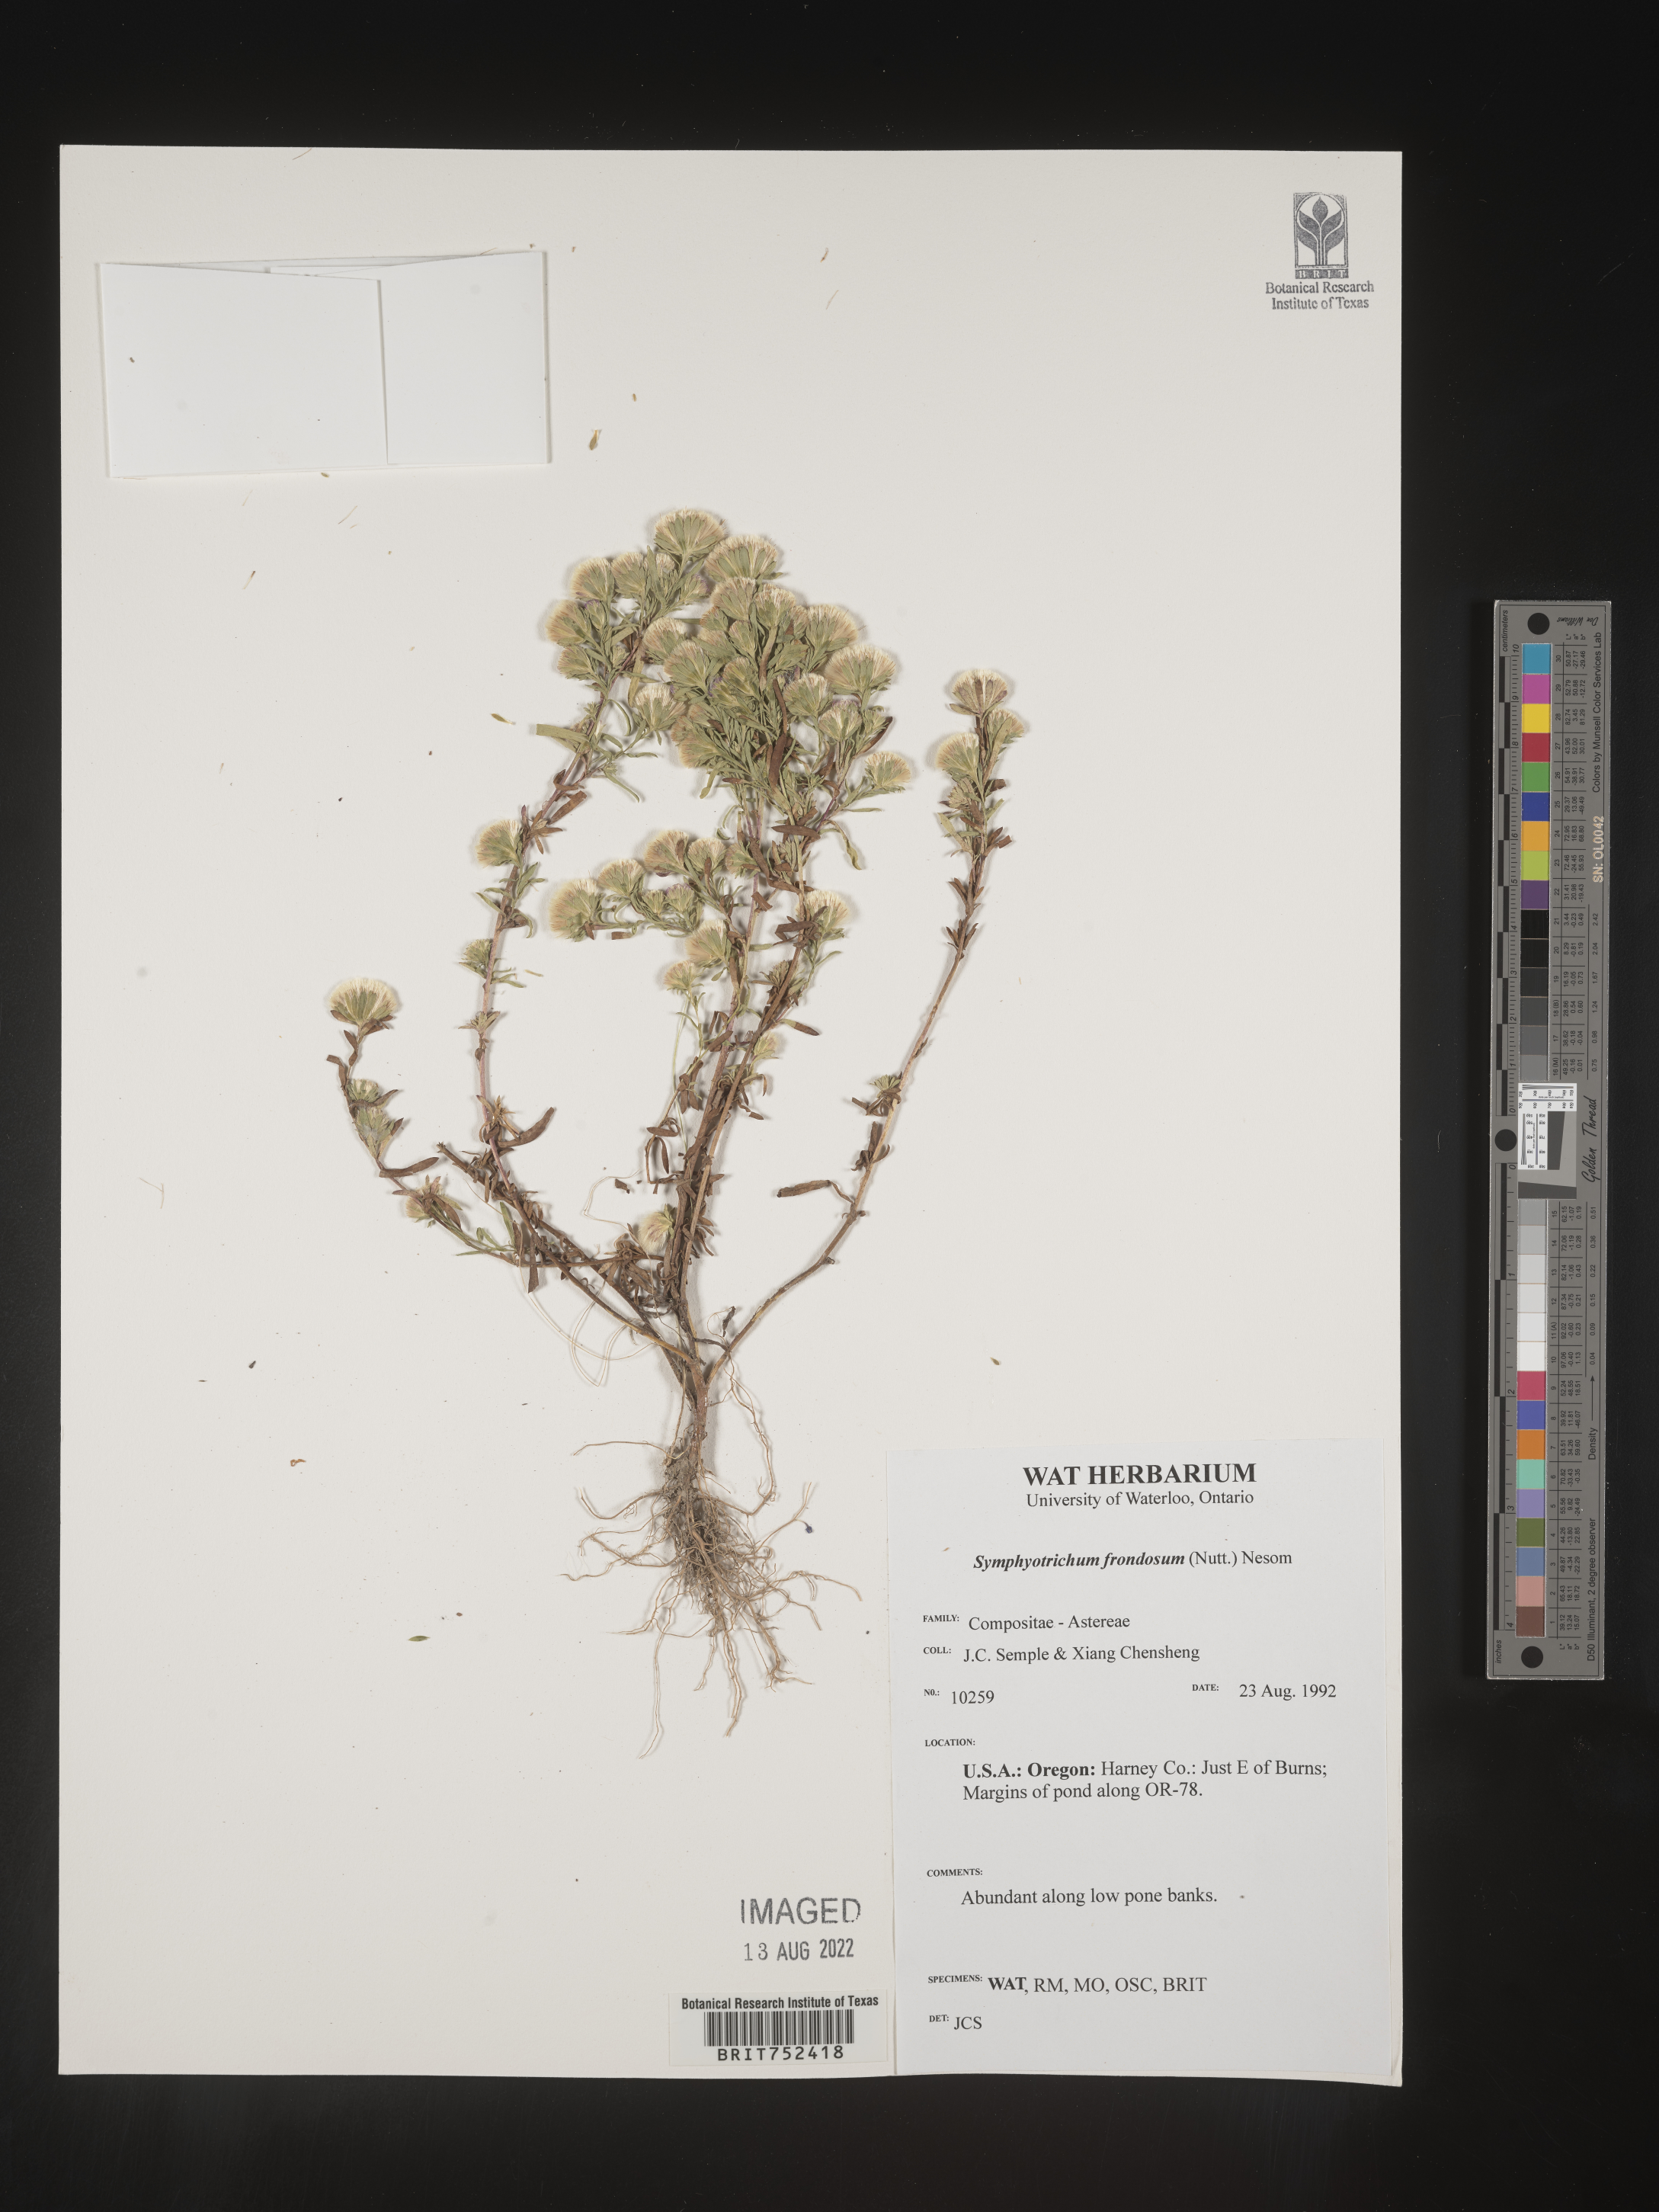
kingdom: Plantae
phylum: Tracheophyta
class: Magnoliopsida
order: Asterales
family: Asteraceae
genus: Symphyotrichum
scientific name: Symphyotrichum frondosum
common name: Leafy aster
